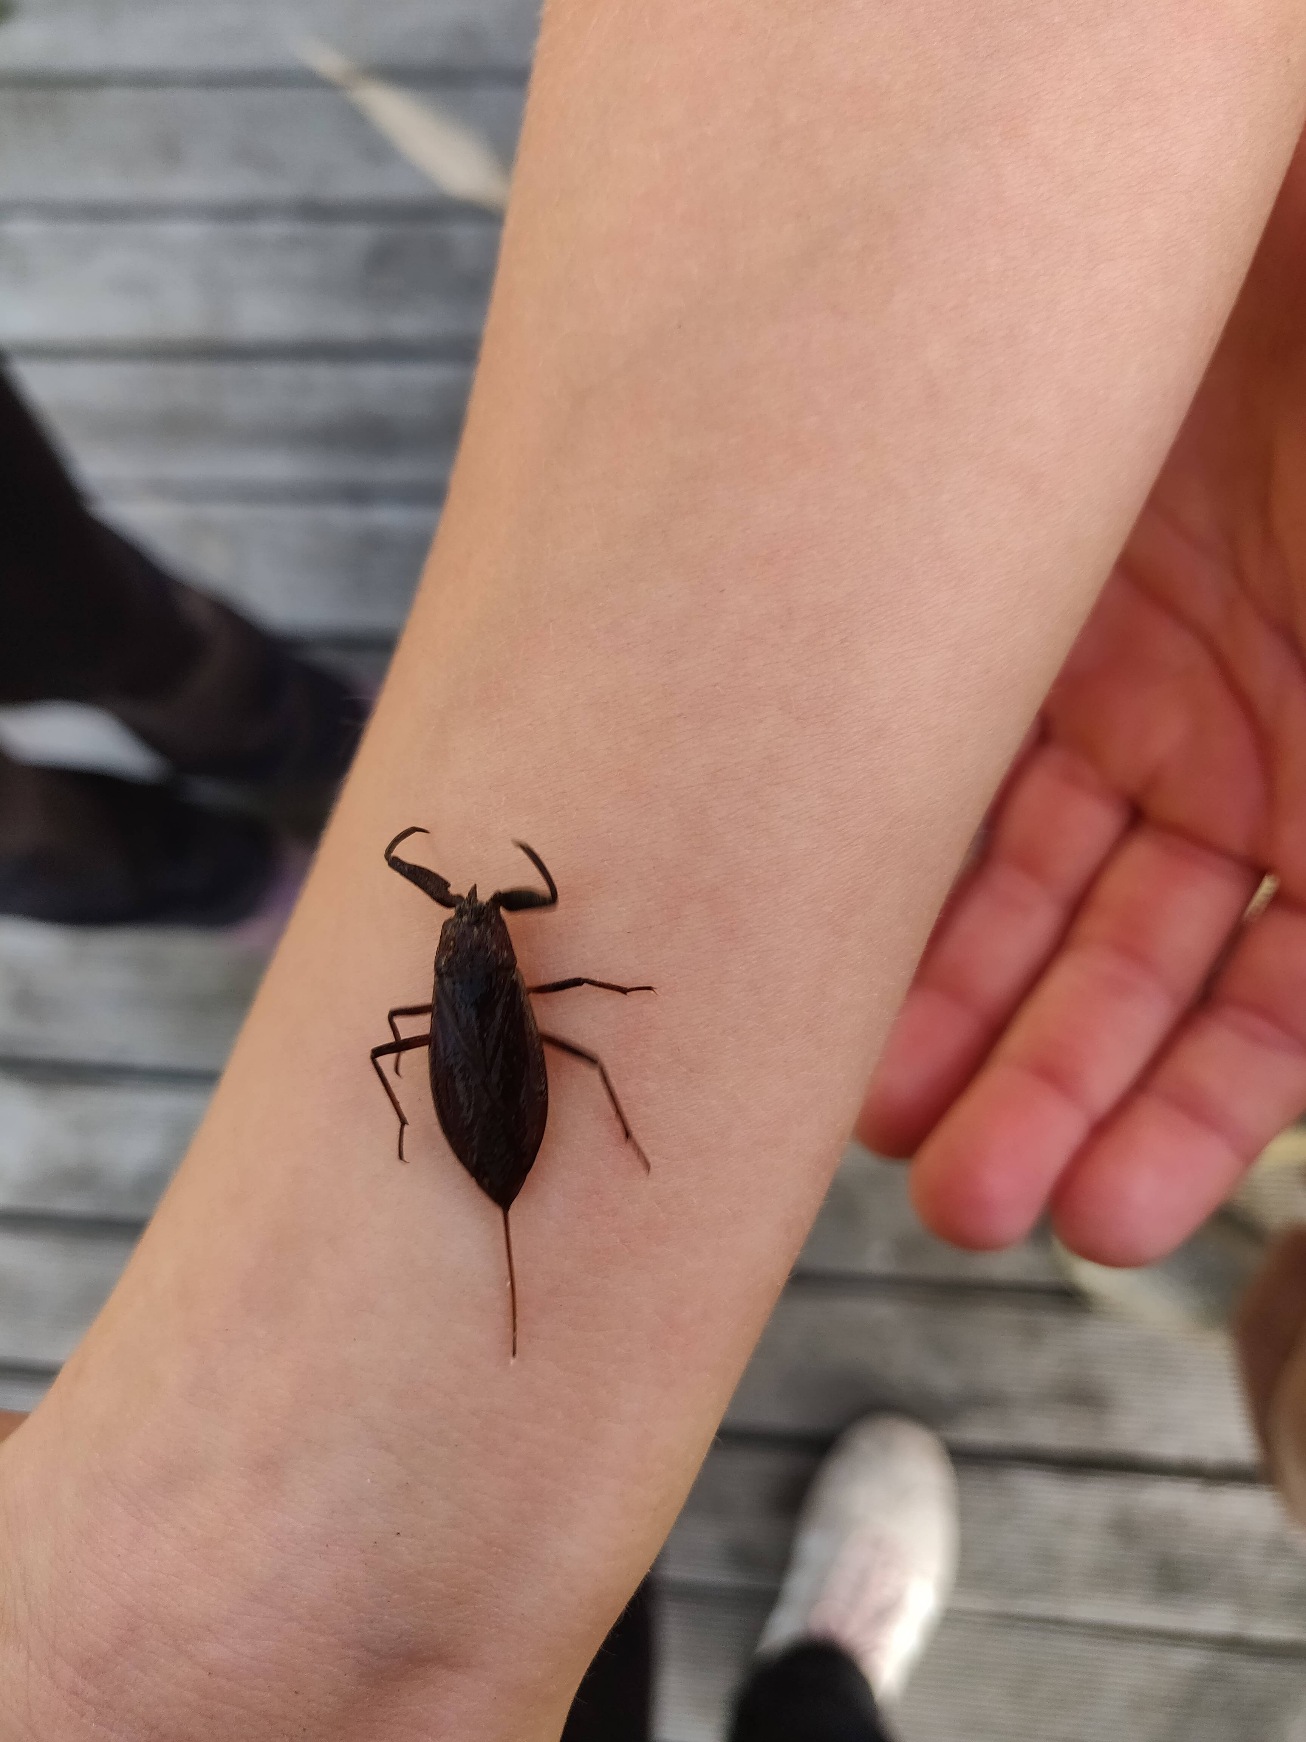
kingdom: Animalia
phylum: Arthropoda
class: Insecta
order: Hemiptera
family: Nepidae
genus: Nepa
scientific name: Nepa cinerea
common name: Skorpiontæge
